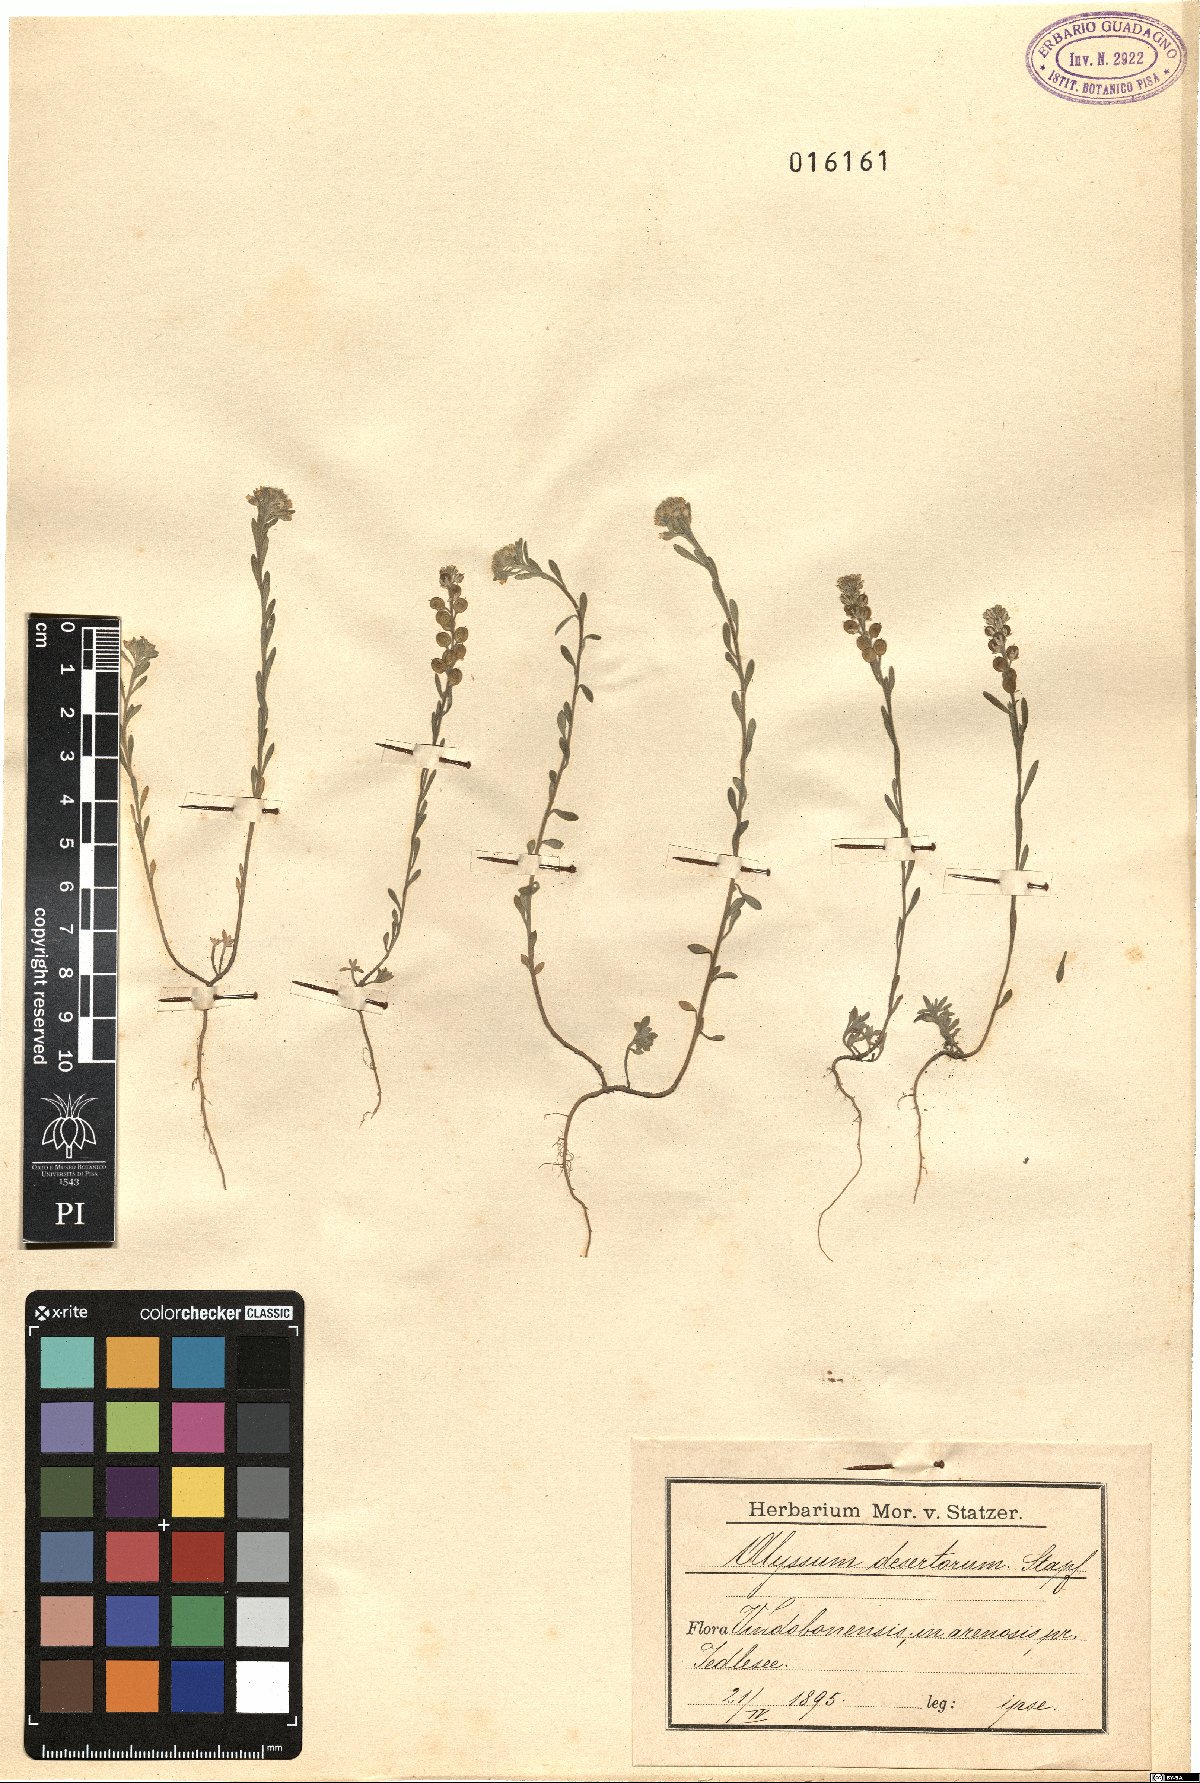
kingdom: Plantae
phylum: Tracheophyta
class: Magnoliopsida
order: Brassicales
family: Brassicaceae
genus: Alyssum
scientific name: Alyssum turkestanicum
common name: Desert alyssum
